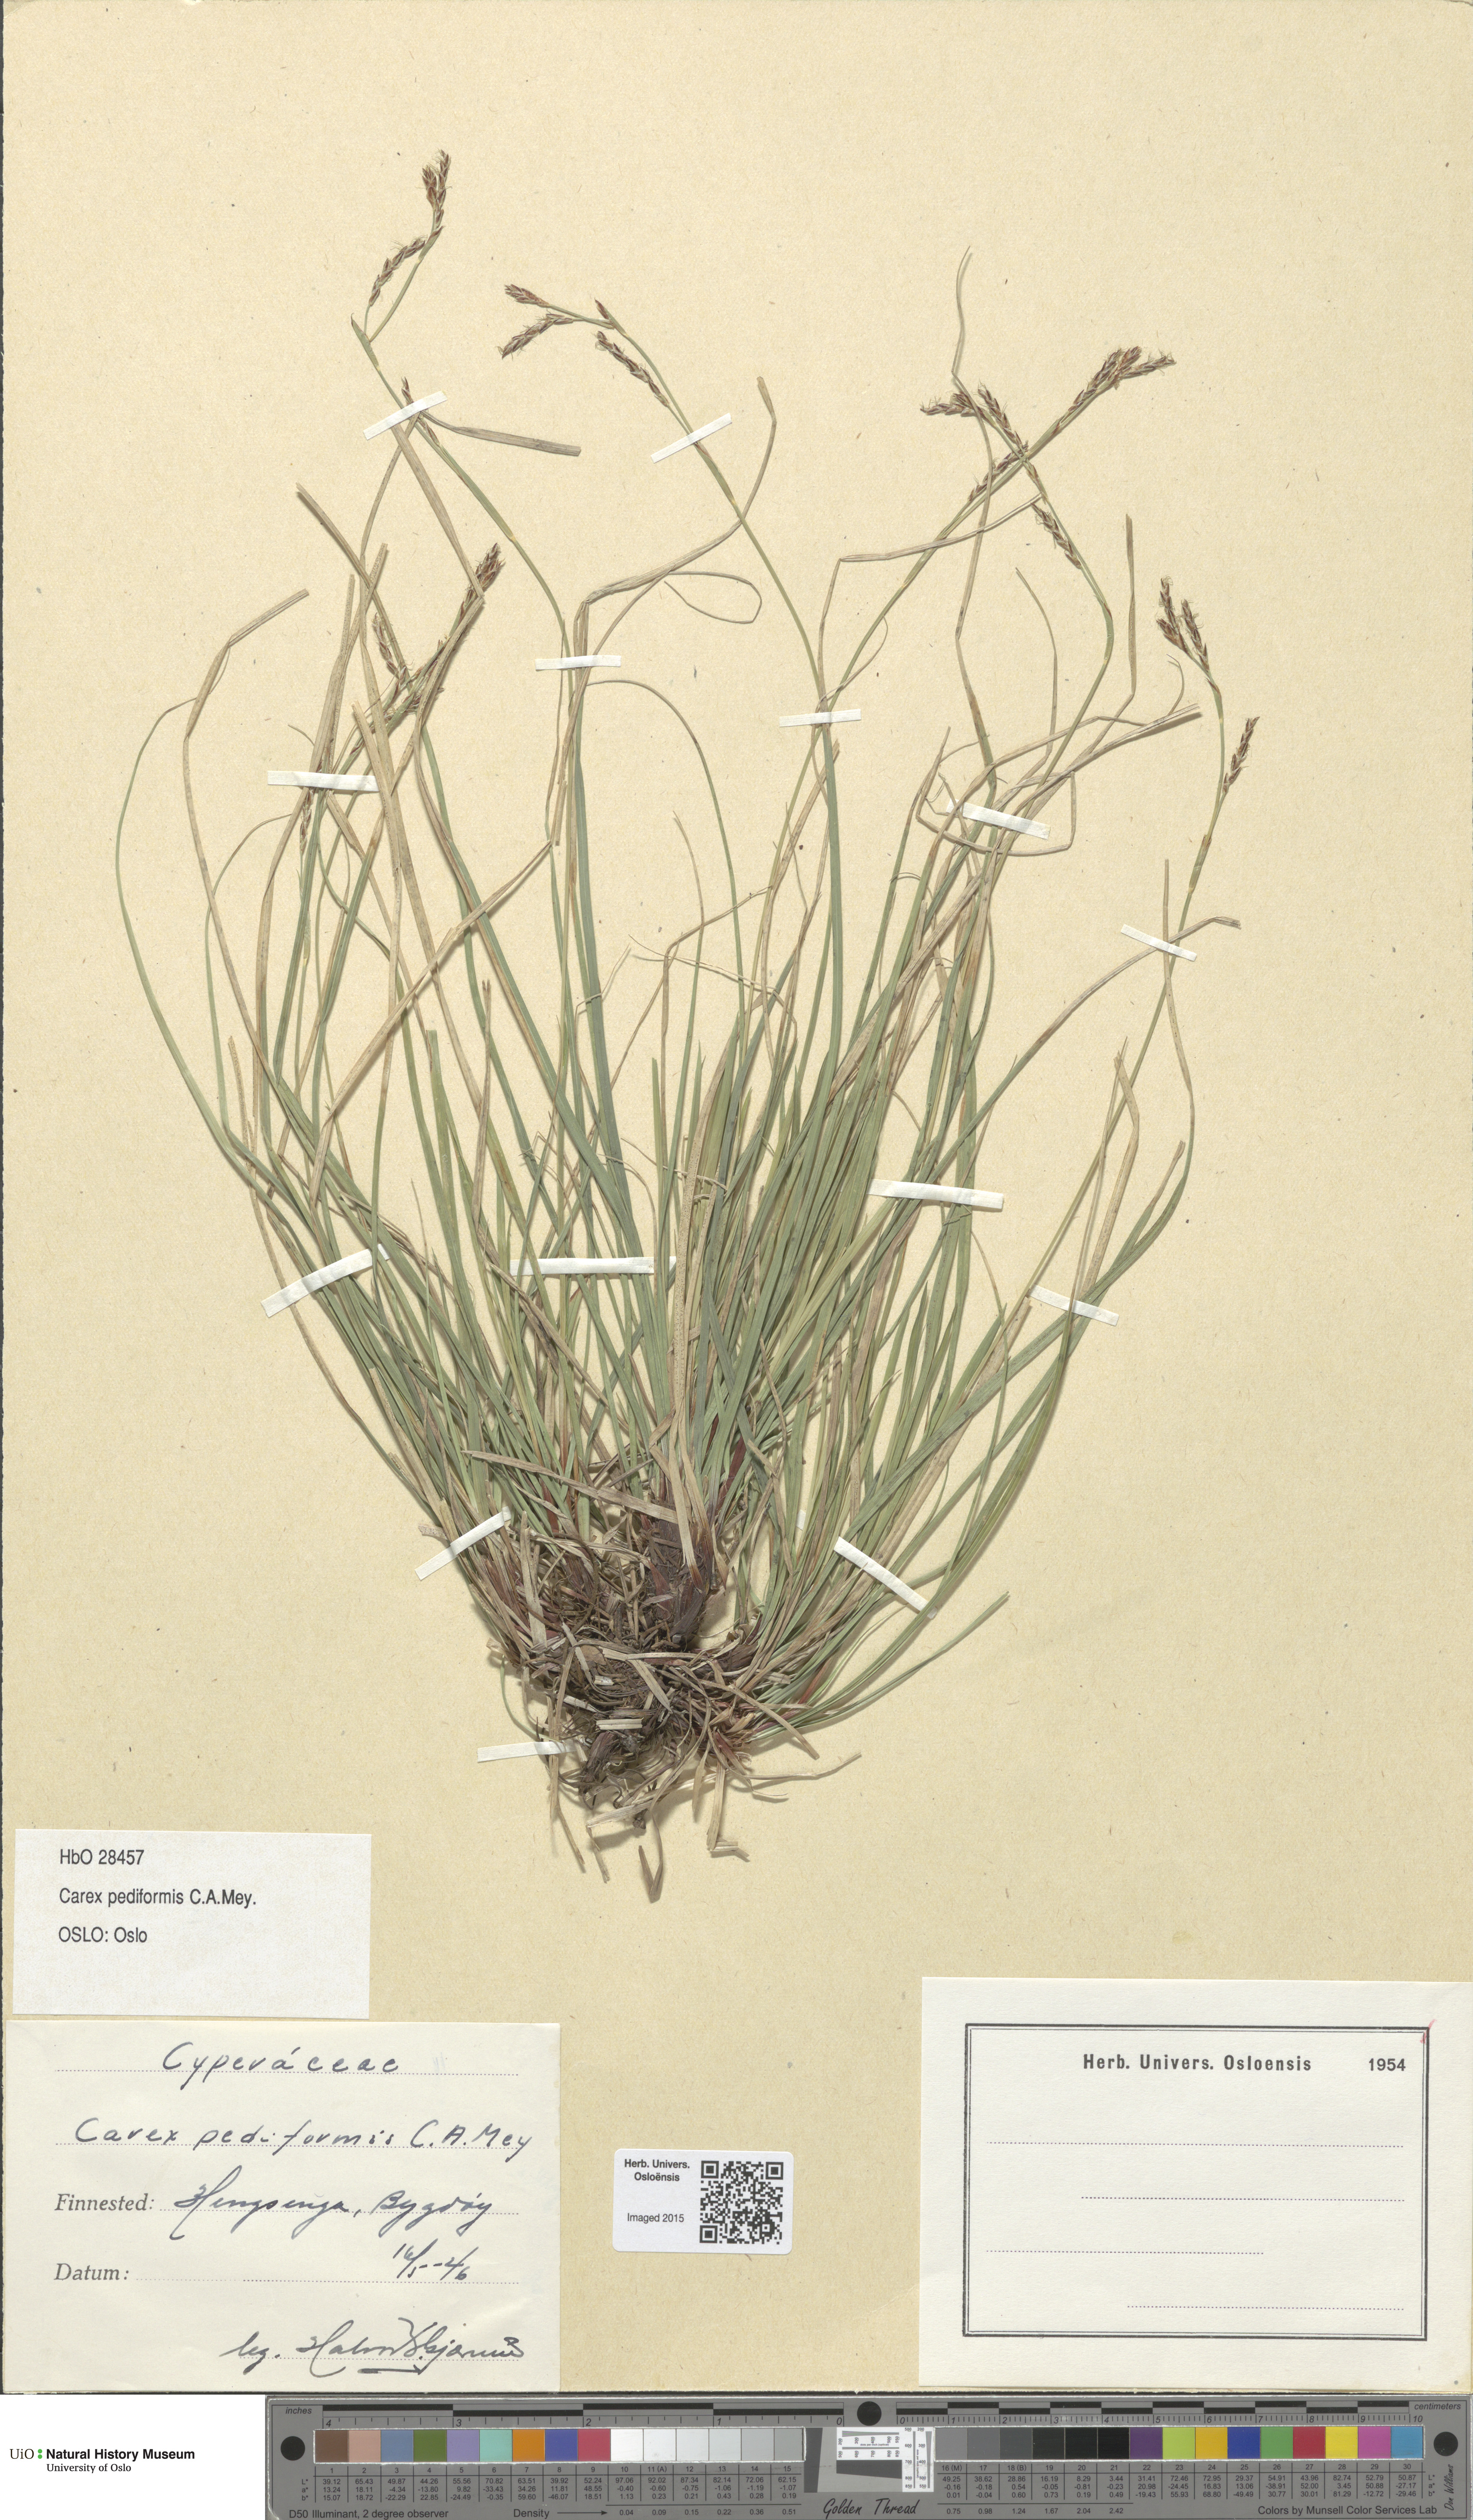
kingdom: Plantae
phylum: Tracheophyta
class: Liliopsida
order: Poales
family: Cyperaceae
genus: Carex
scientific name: Carex rhizina
